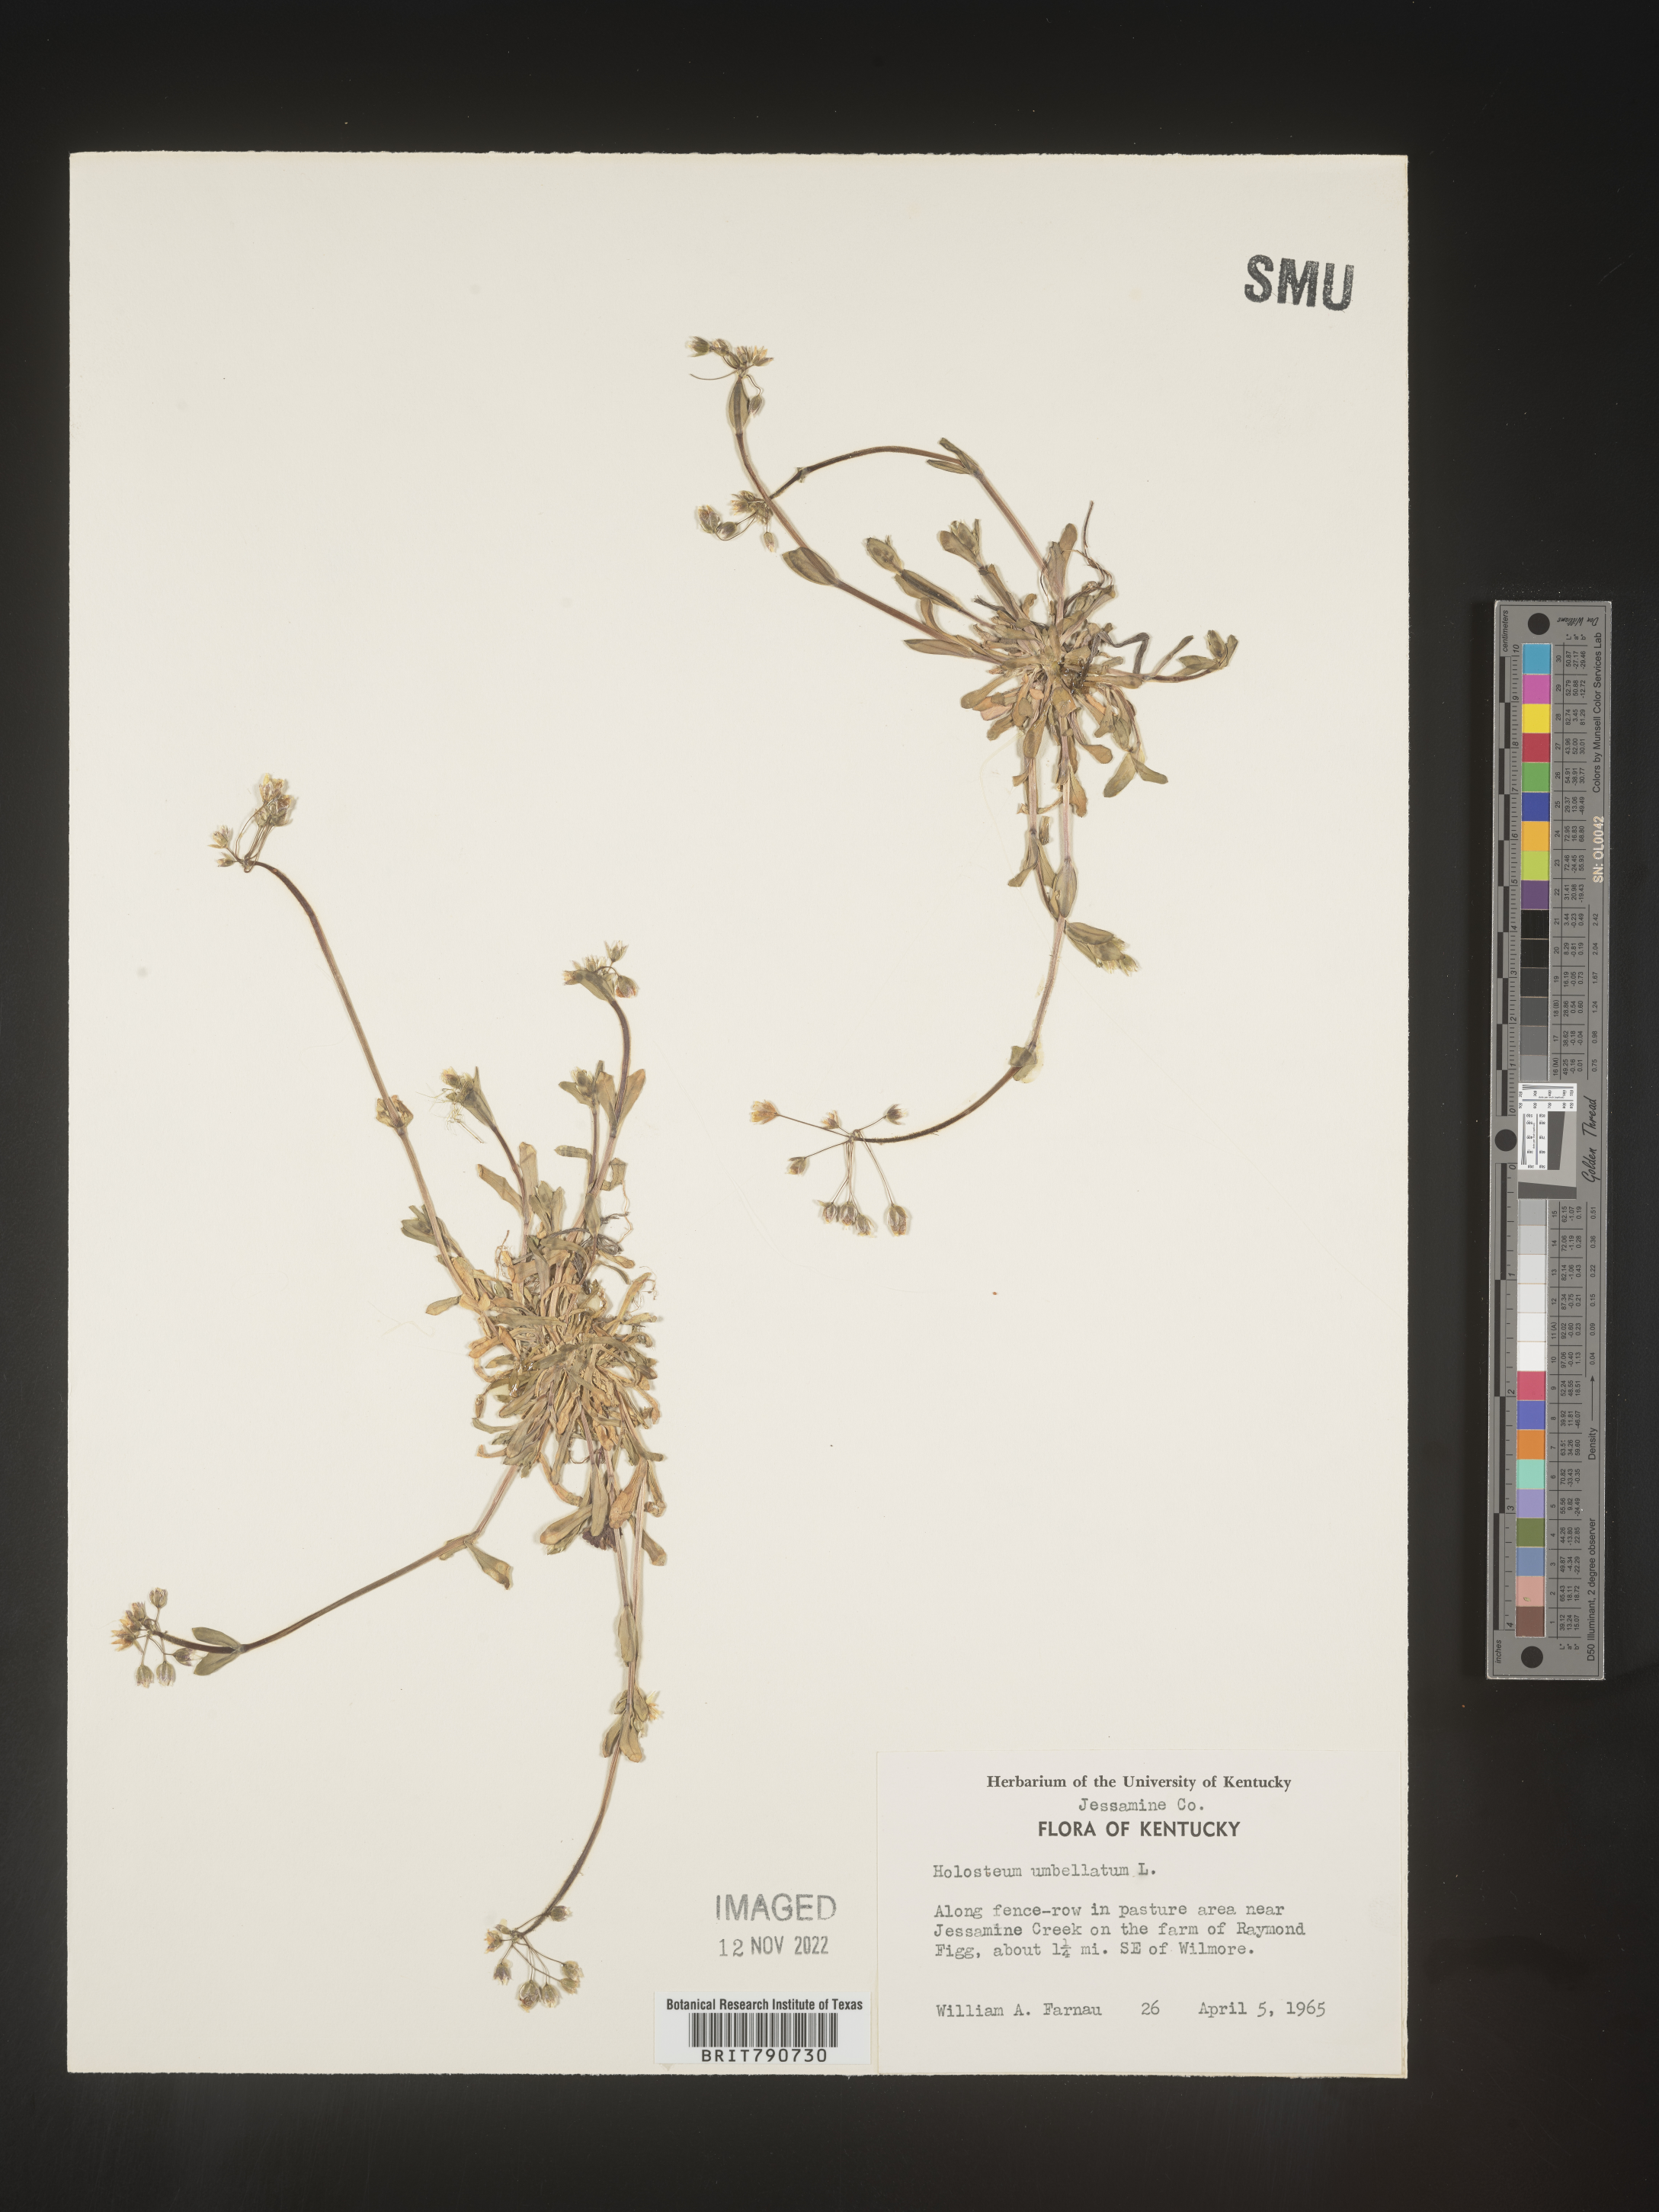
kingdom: Plantae
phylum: Tracheophyta
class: Magnoliopsida
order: Caryophyllales
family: Caryophyllaceae
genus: Holosteum
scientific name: Holosteum
